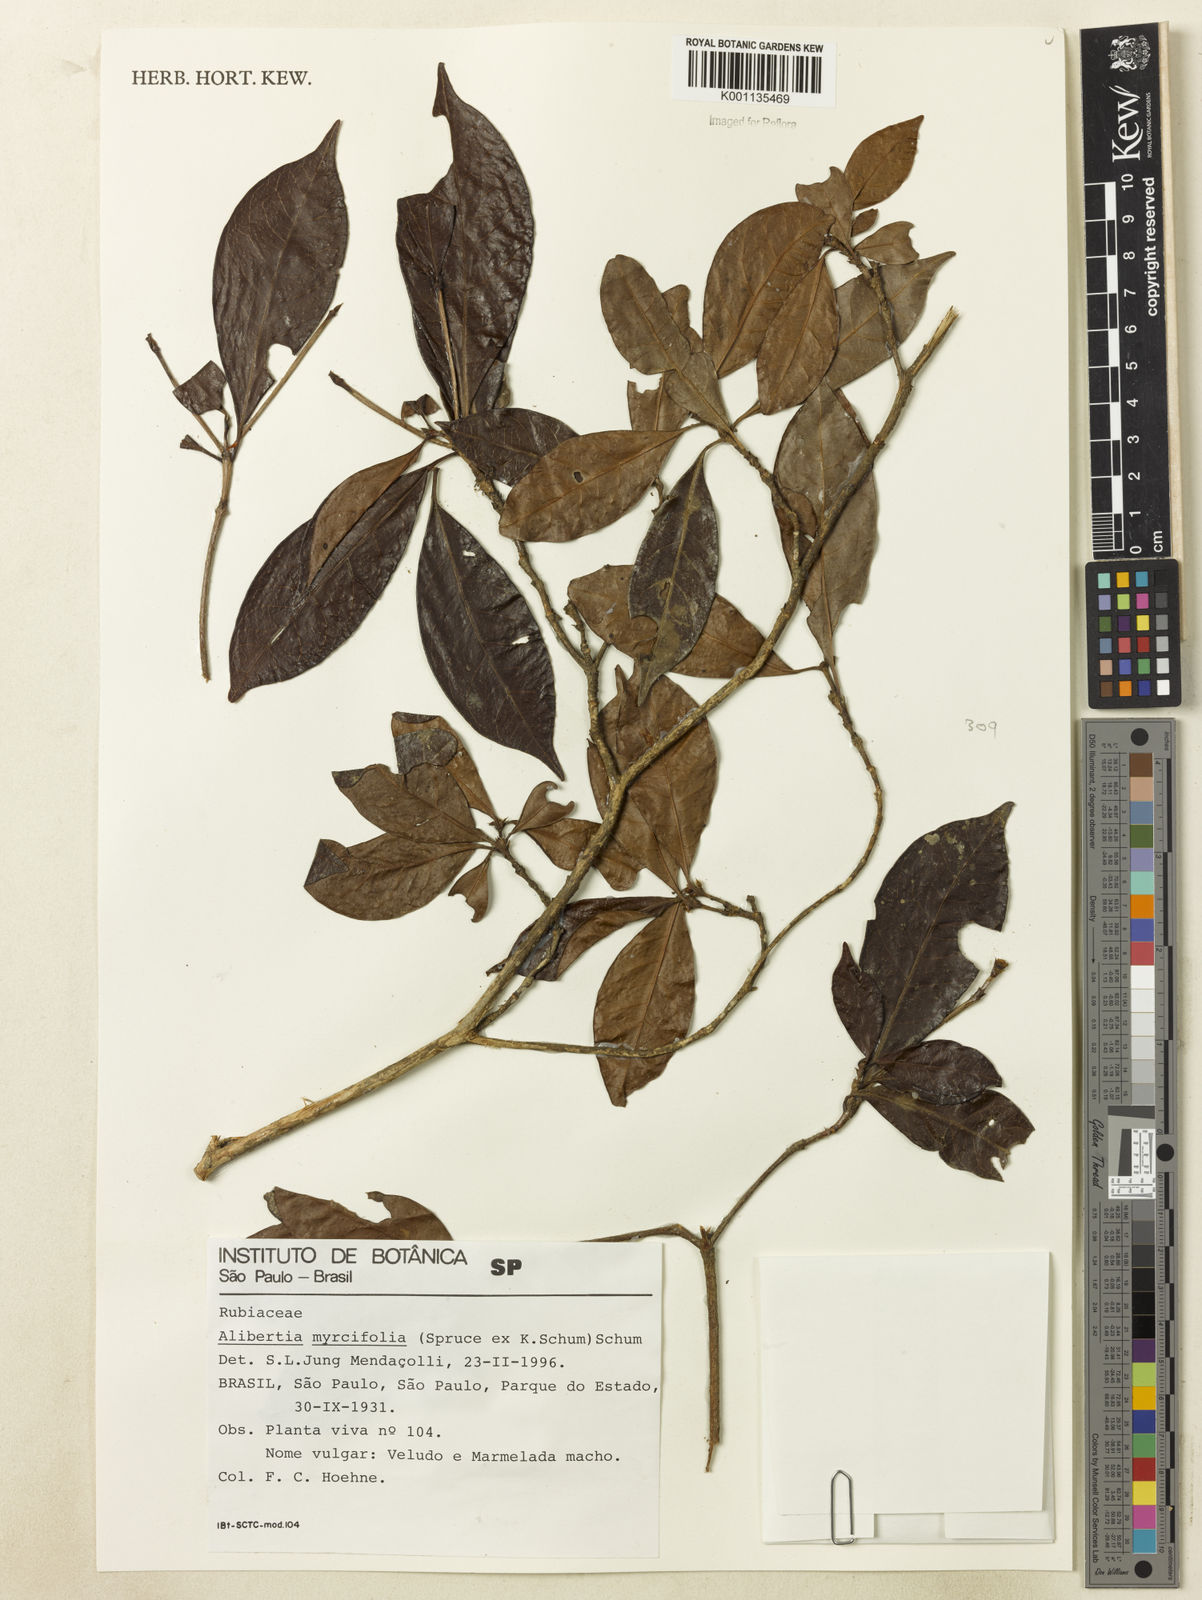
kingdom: Plantae
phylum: Tracheophyta
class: Magnoliopsida
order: Gentianales
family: Rubiaceae
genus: Cordiera
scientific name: Cordiera myrciifolia
